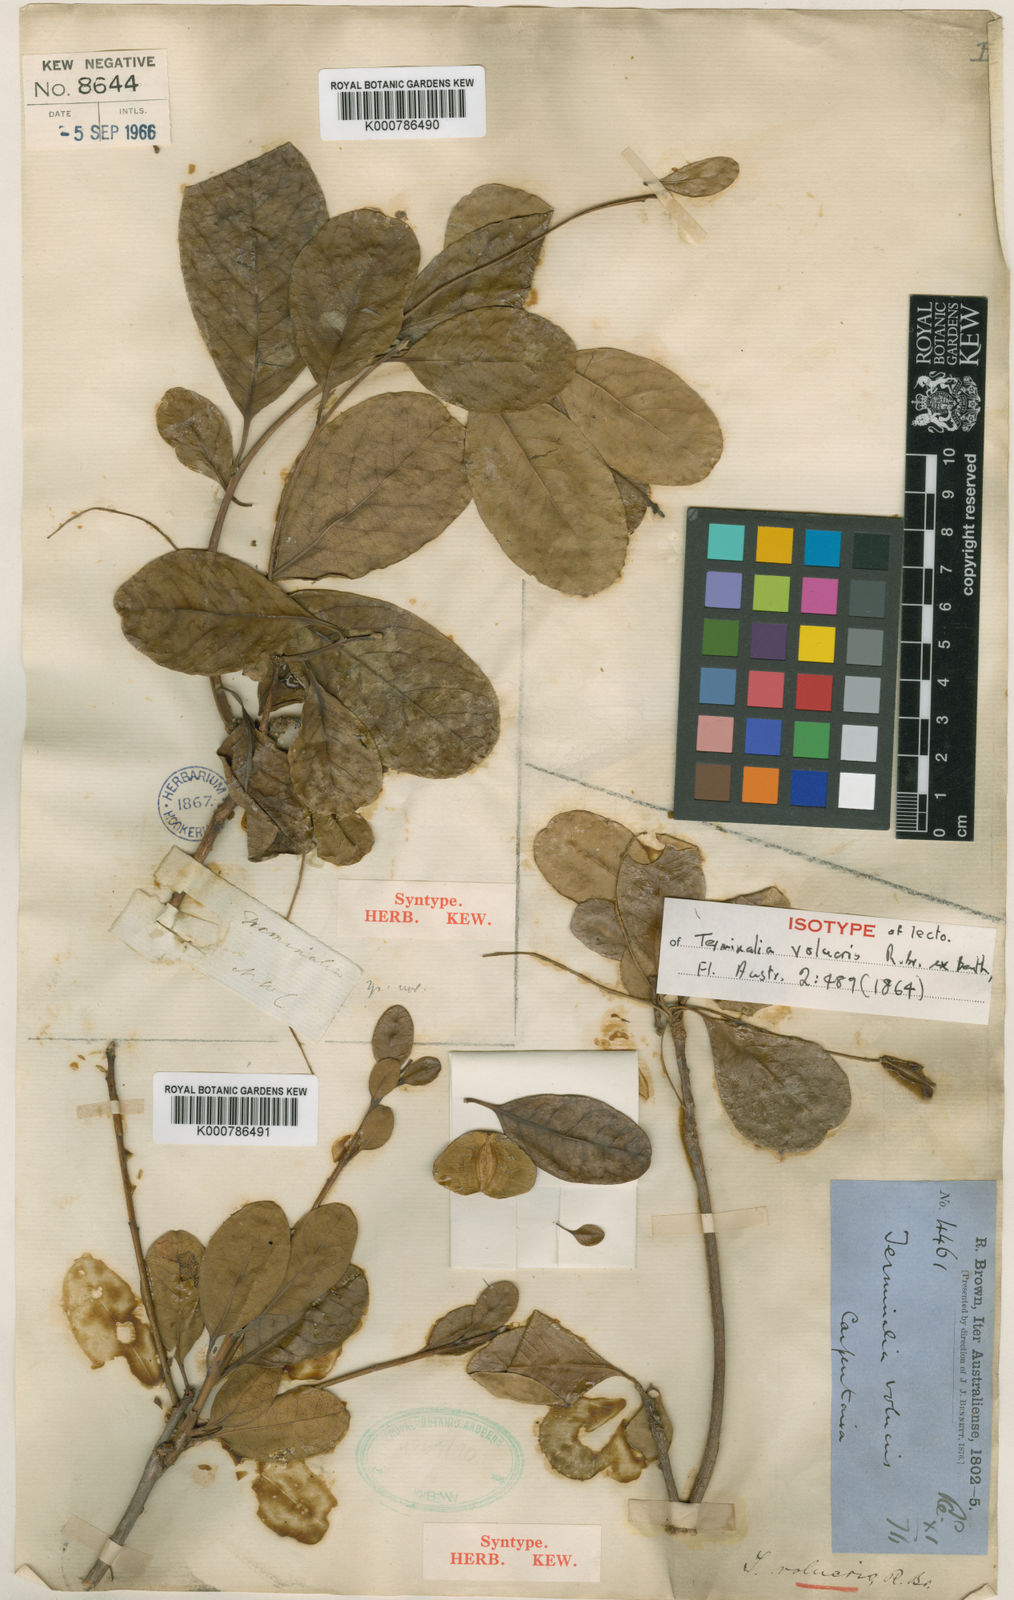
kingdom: Plantae
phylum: Tracheophyta
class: Magnoliopsida
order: Myrtales
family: Combretaceae
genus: Terminalia
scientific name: Terminalia volucris
